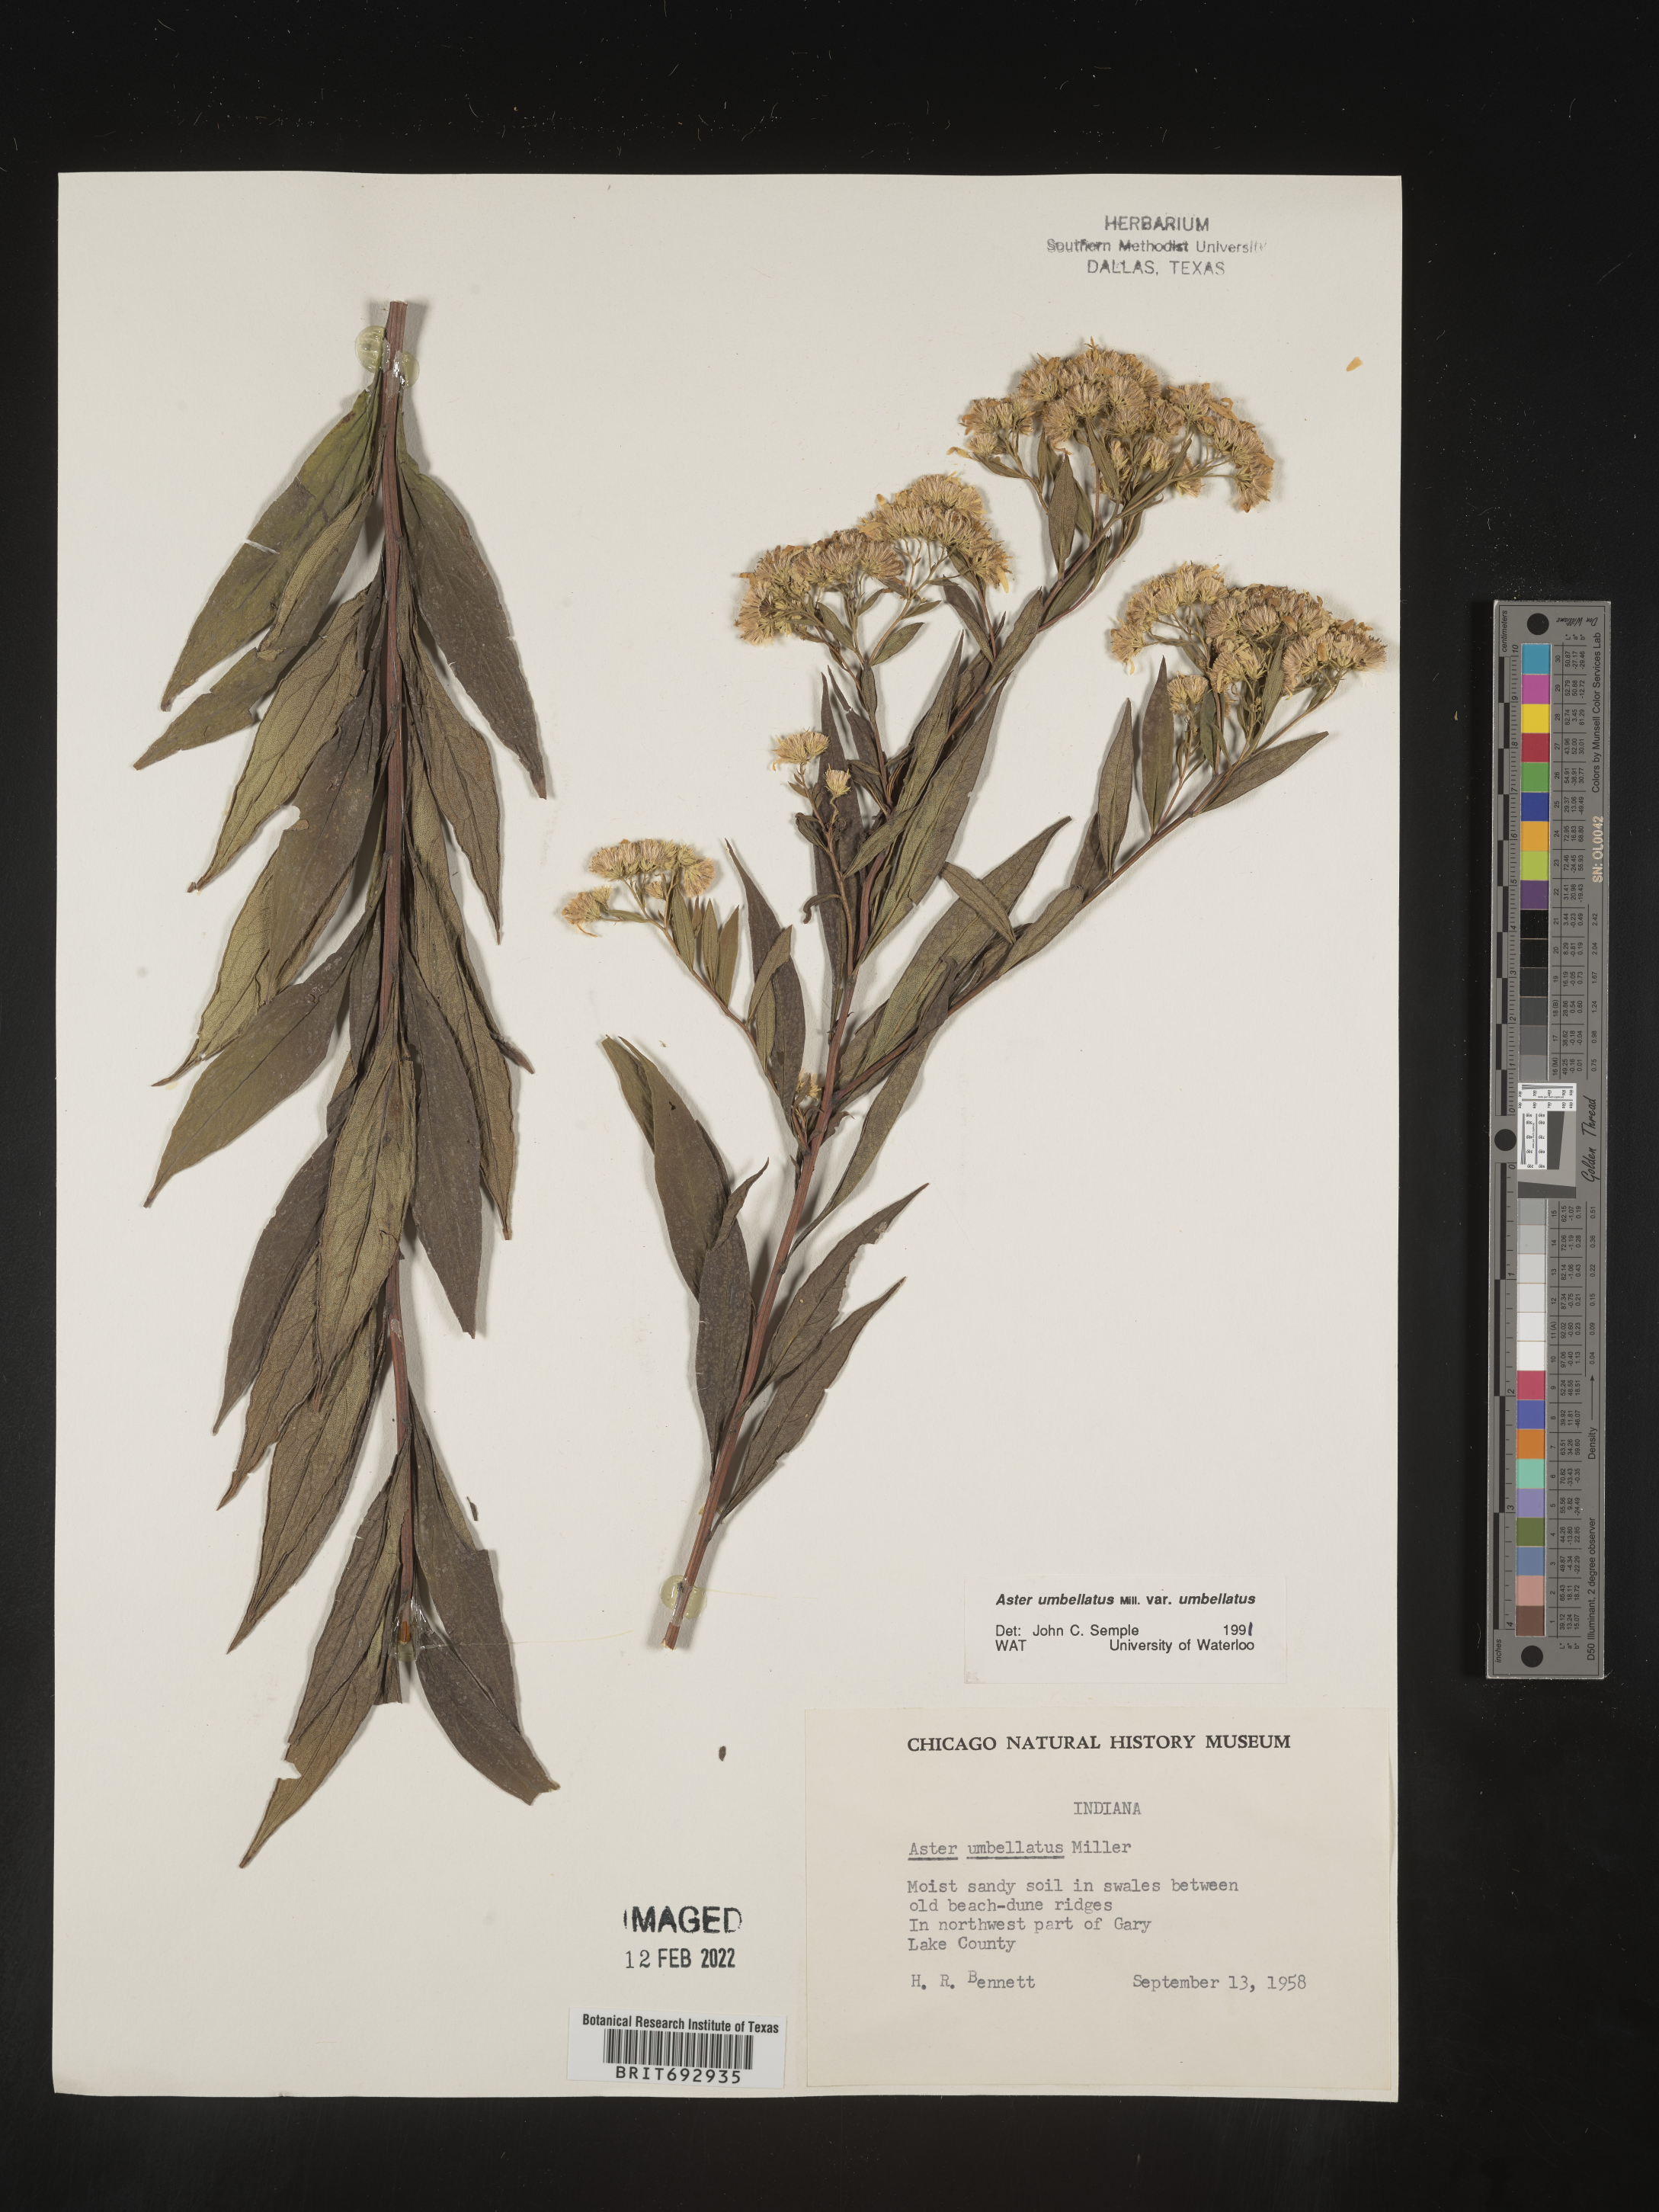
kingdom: Plantae
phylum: Tracheophyta
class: Magnoliopsida
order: Asterales
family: Asteraceae
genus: Doellingeria
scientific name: Doellingeria umbellata
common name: Flat-top white aster
